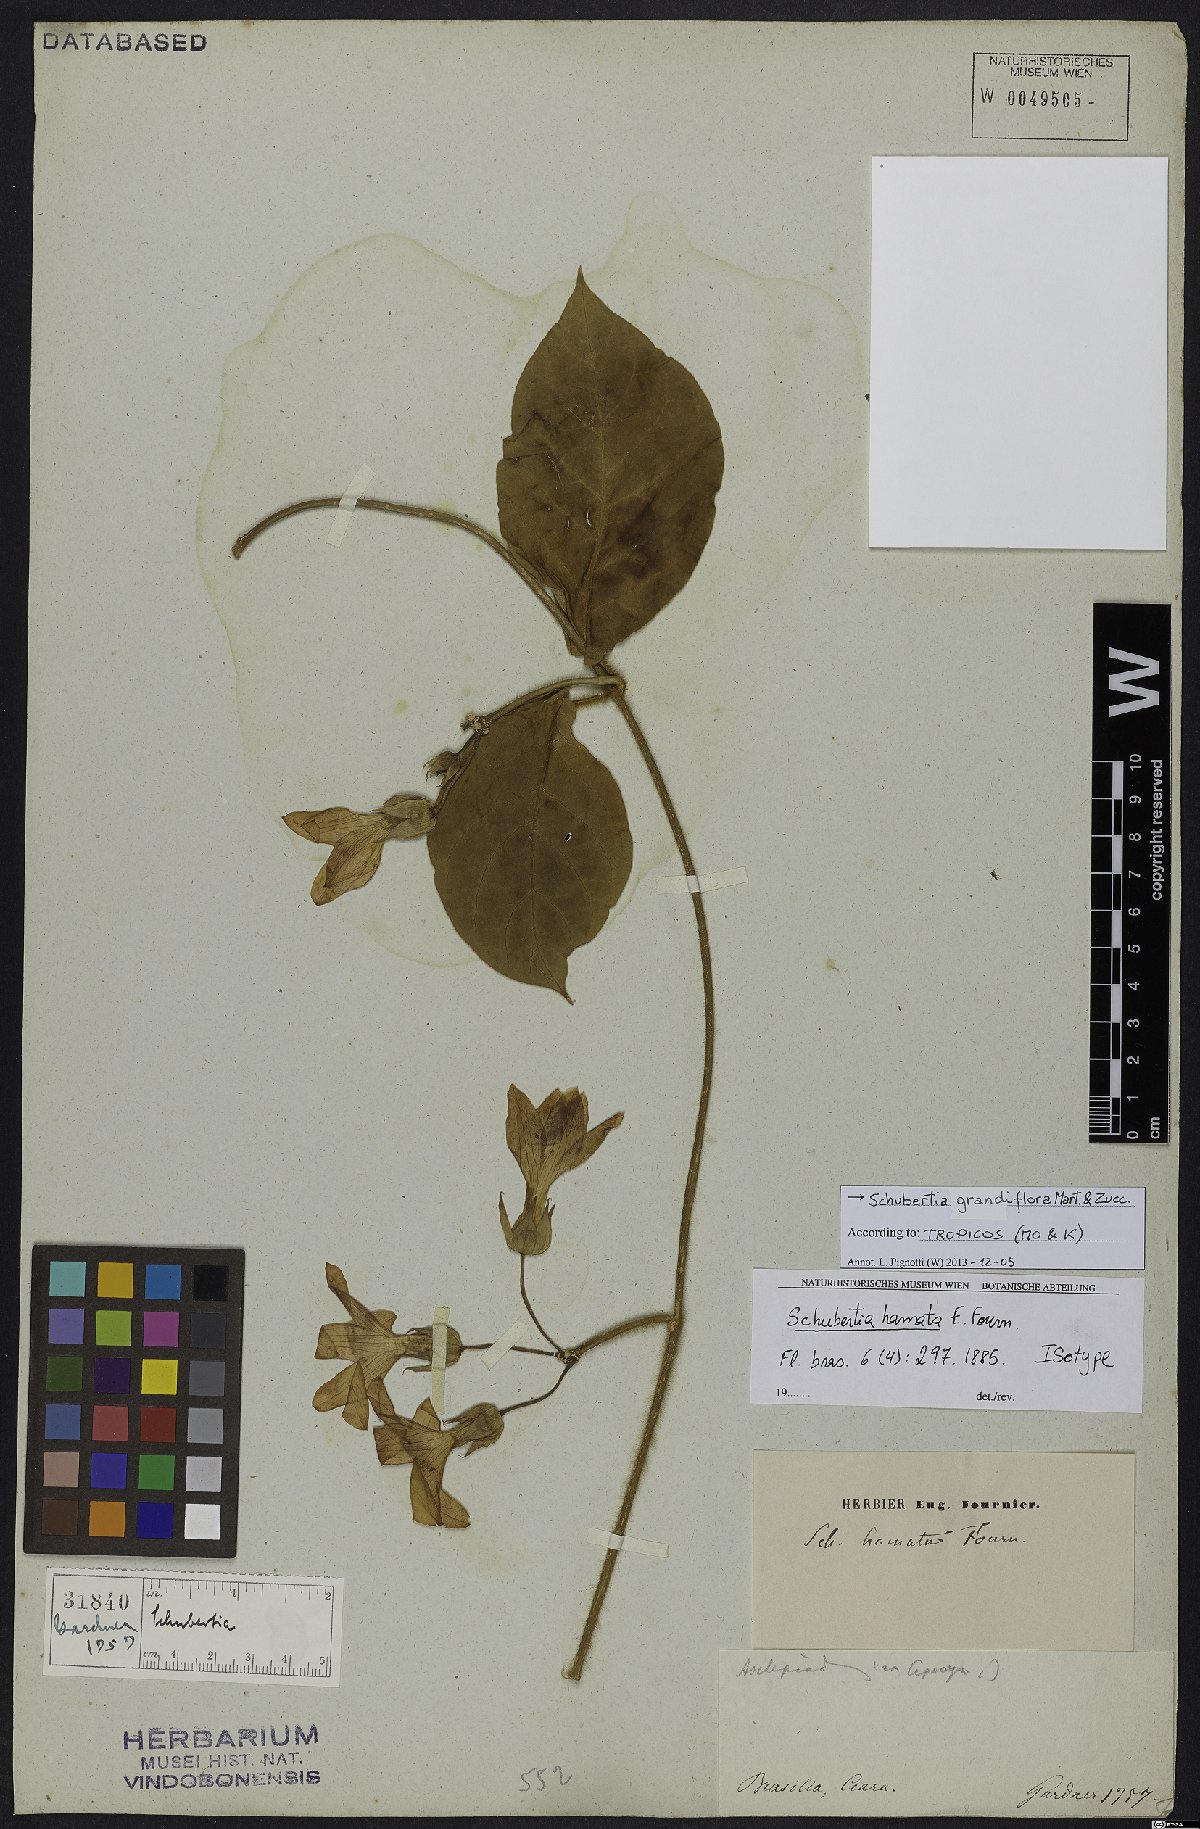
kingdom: Plantae
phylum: Tracheophyta
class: Magnoliopsida
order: Gentianales
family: Apocynaceae
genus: Schubertia
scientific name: Schubertia grandiflora
